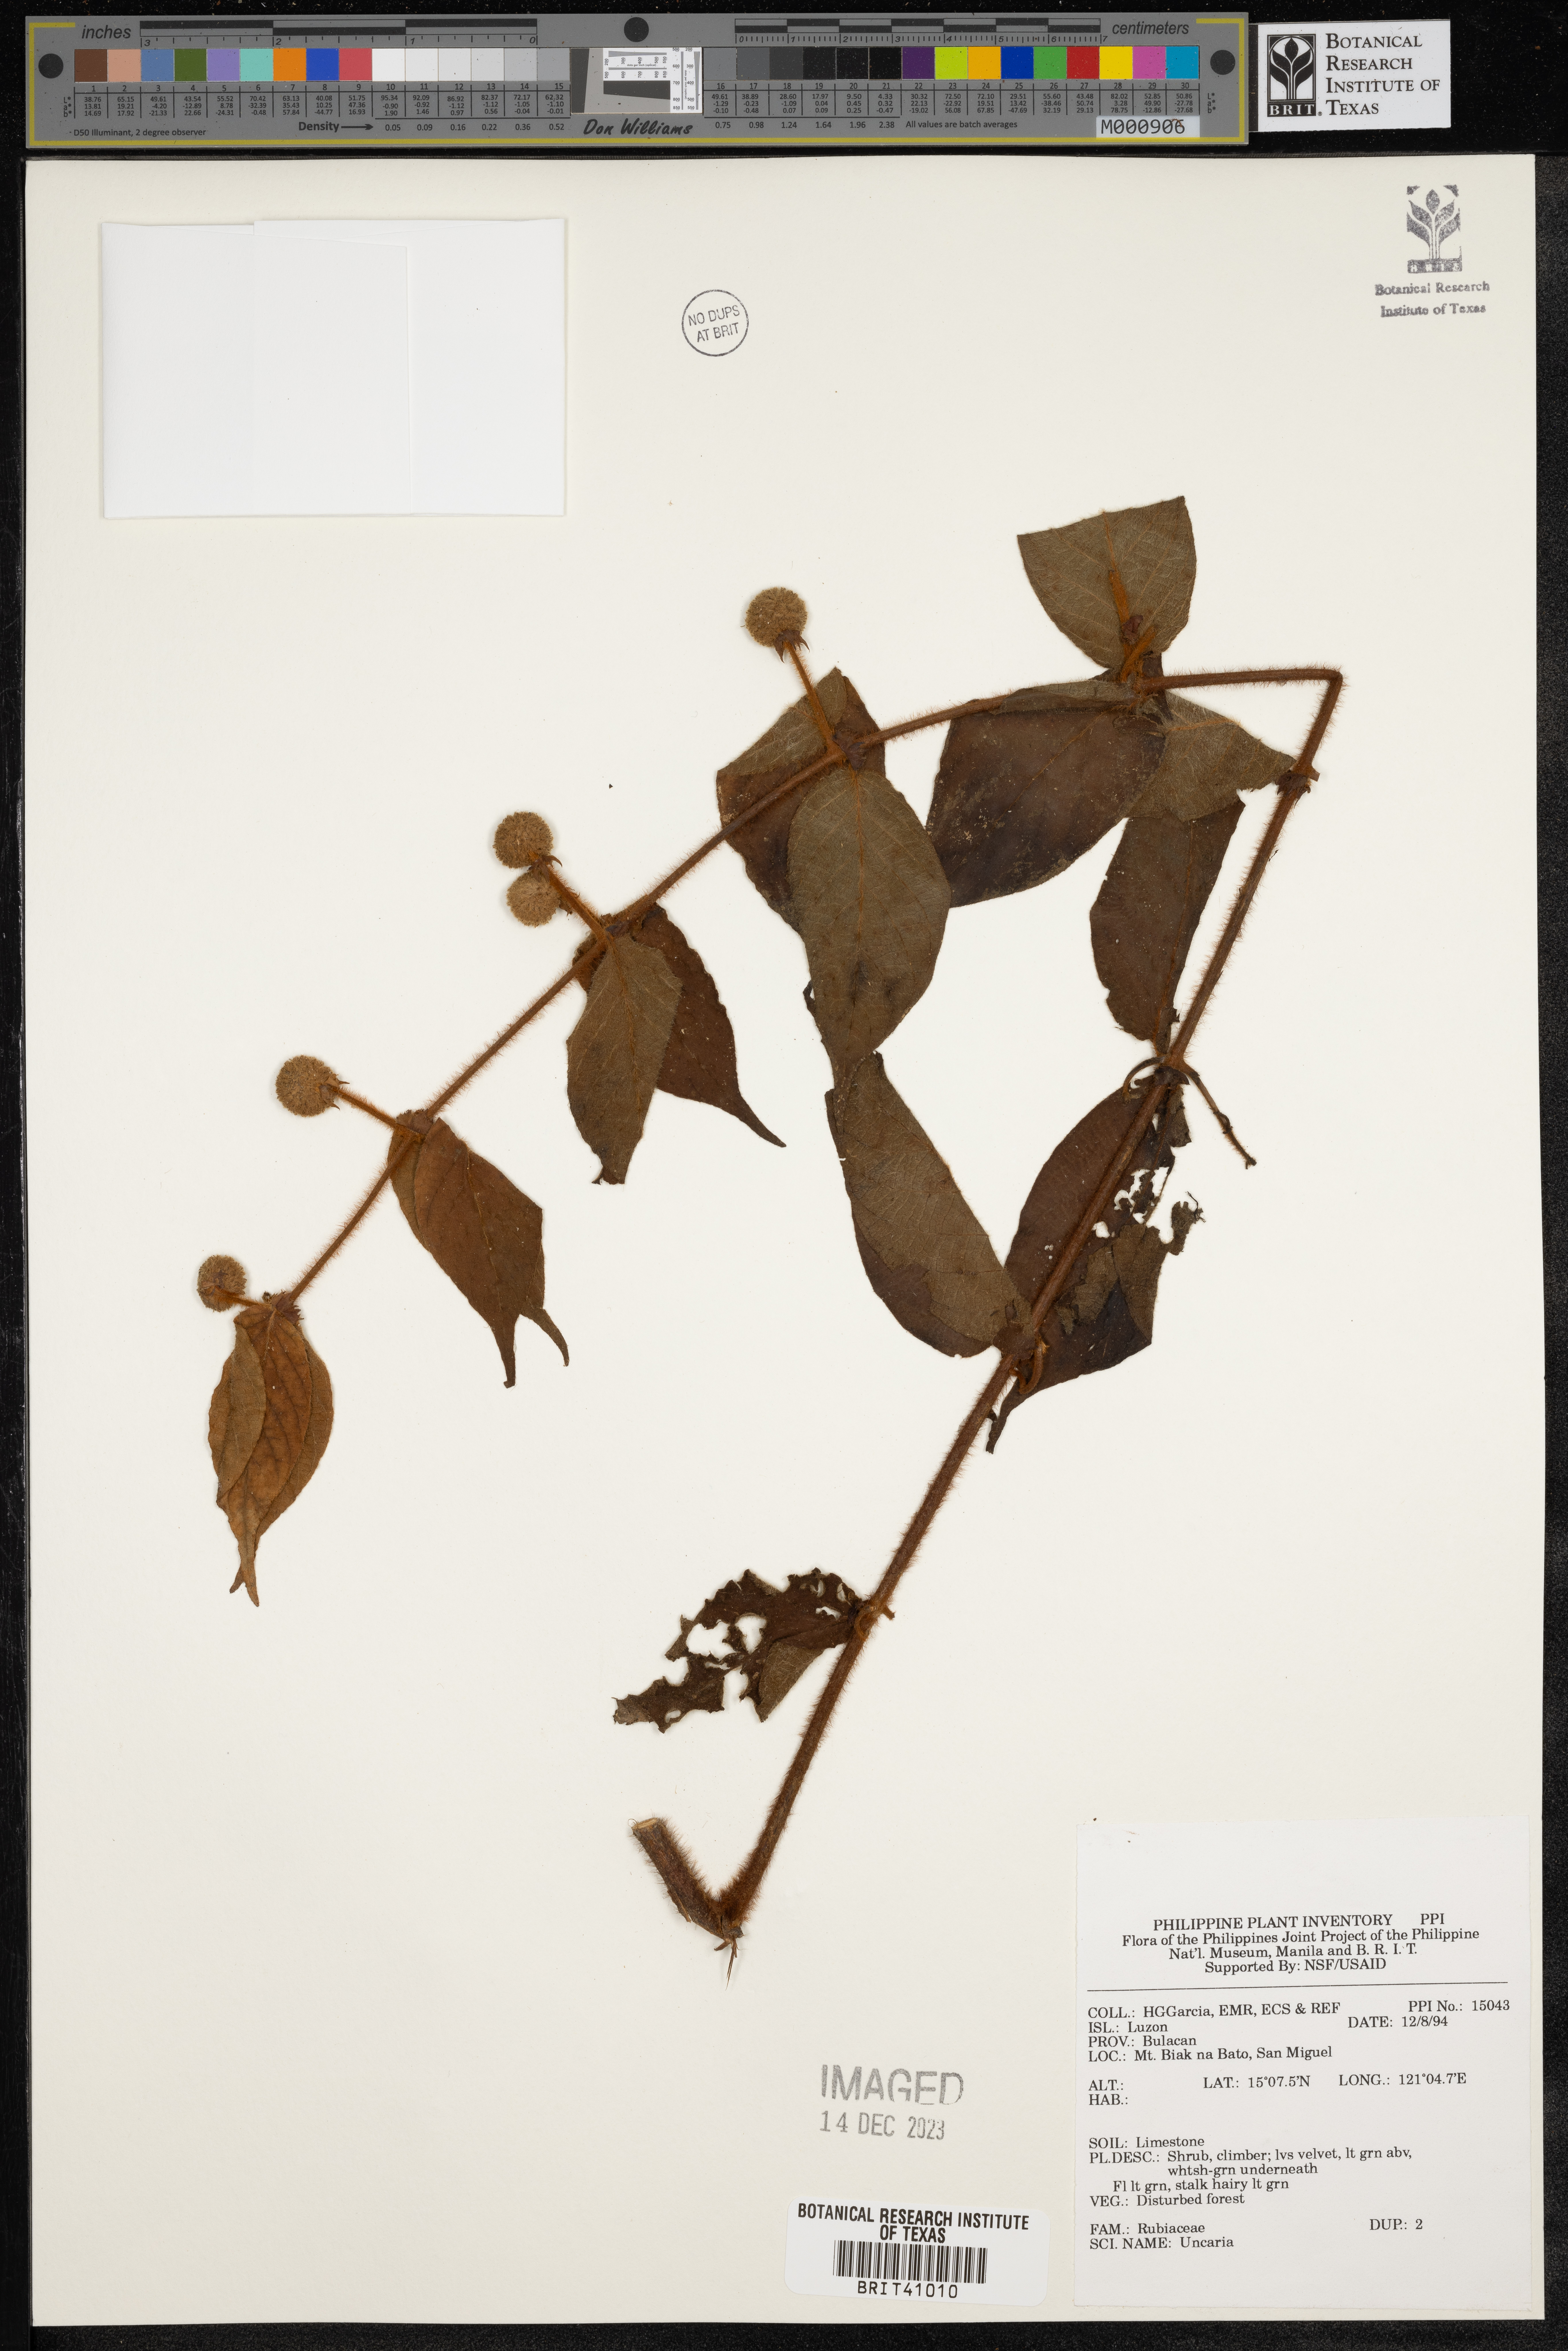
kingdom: Plantae
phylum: Tracheophyta
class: Magnoliopsida
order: Gentianales
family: Rubiaceae
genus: Uncaria
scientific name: Uncaria
